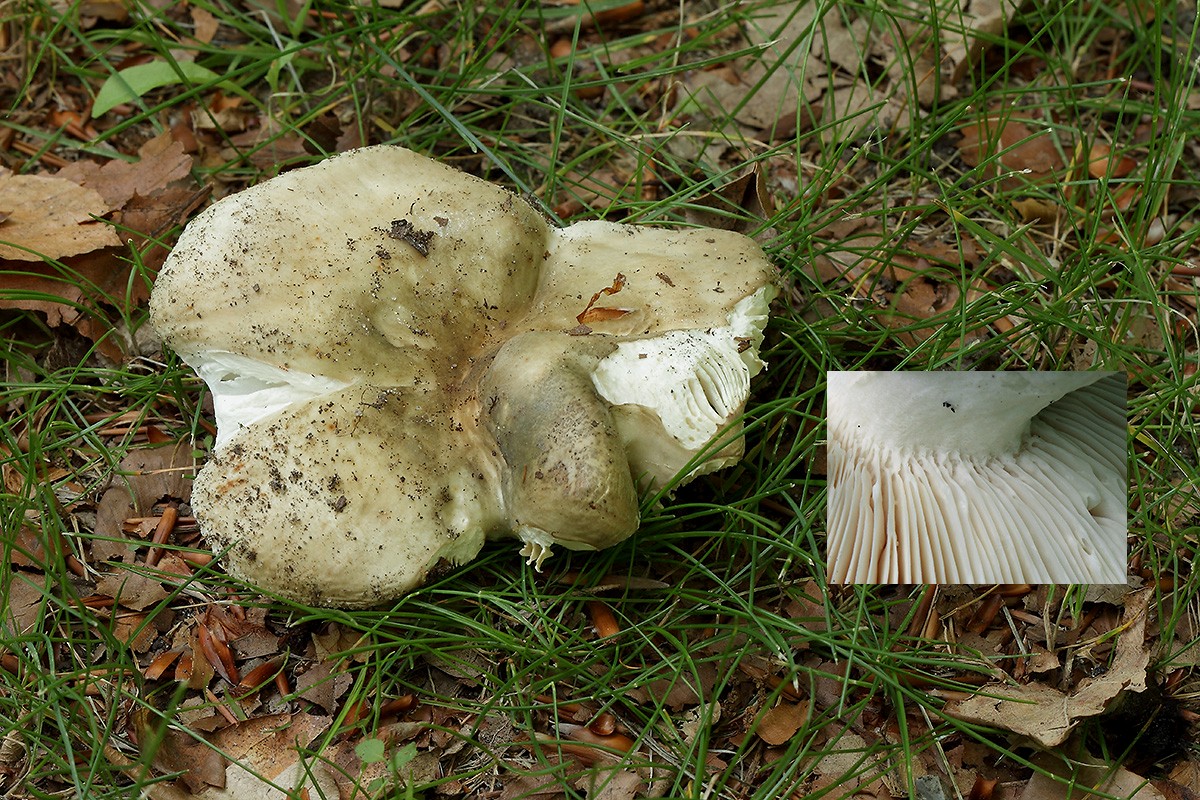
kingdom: Fungi
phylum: Basidiomycota
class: Agaricomycetes
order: Russulales
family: Russulaceae
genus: Russula
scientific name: Russula faustiana
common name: olivengrå skørhat
